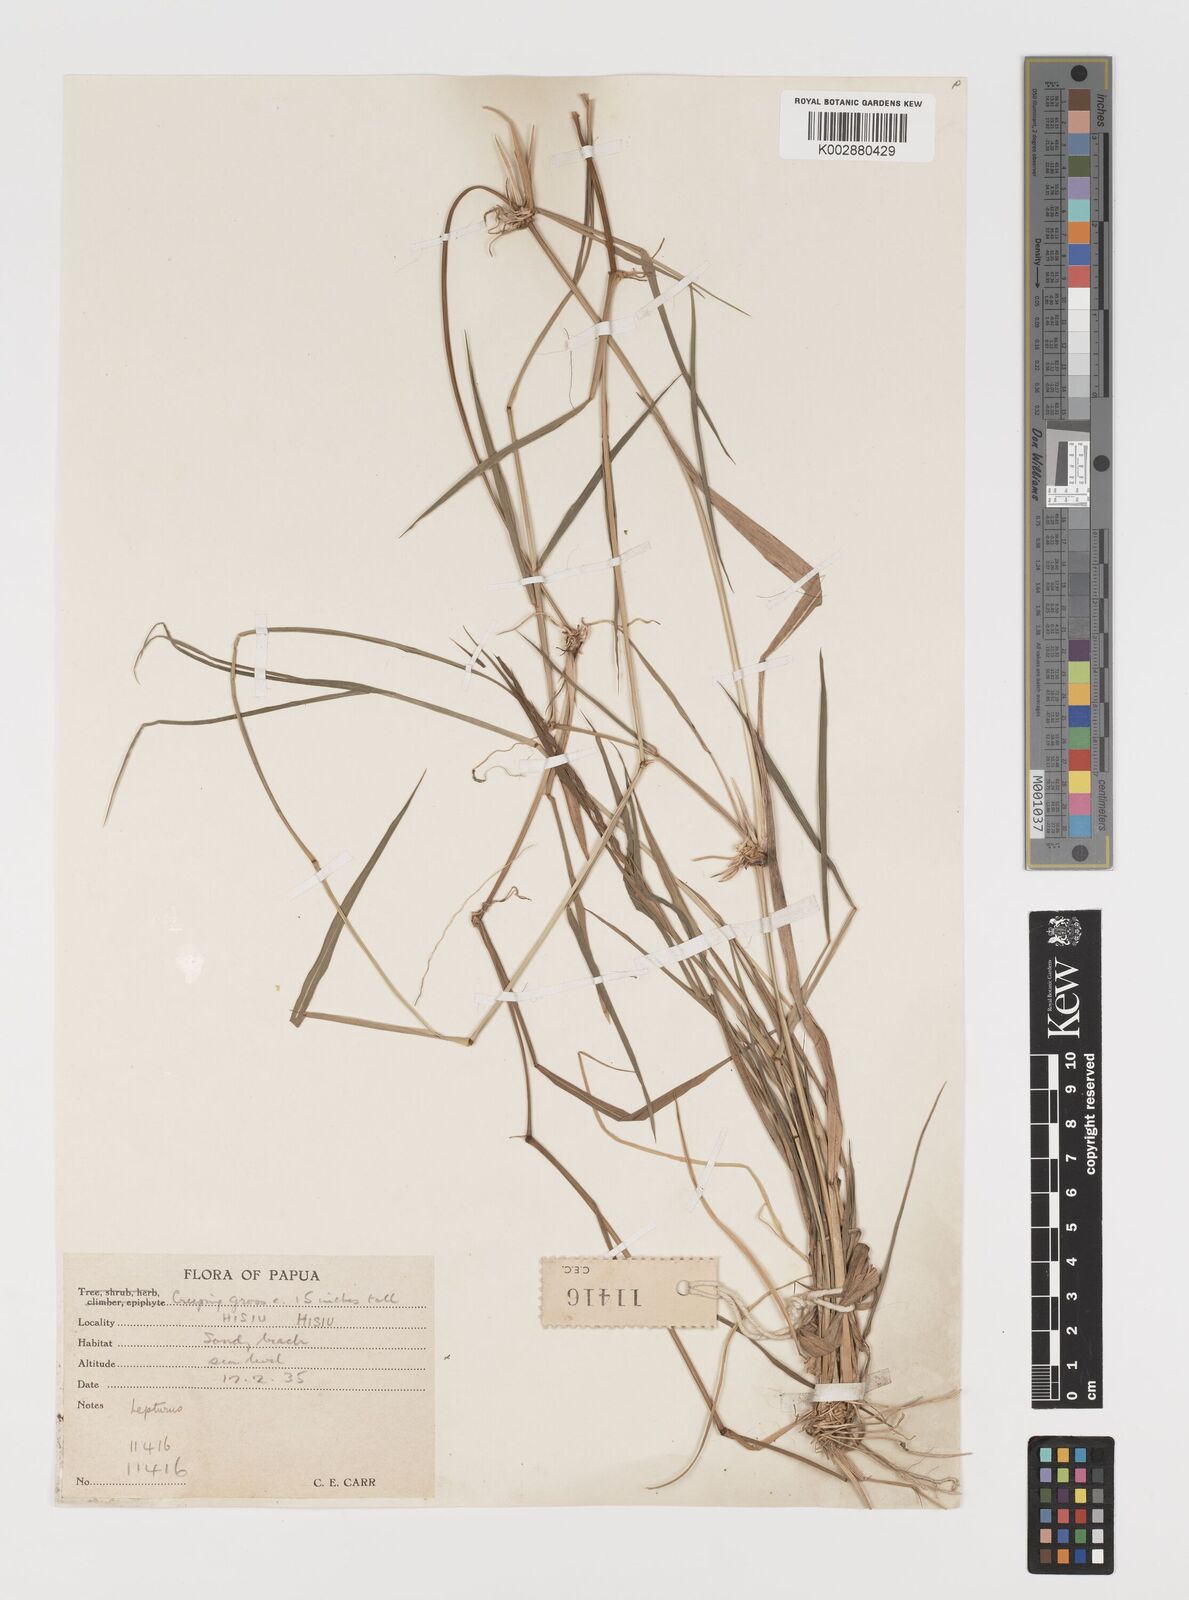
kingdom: Plantae
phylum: Tracheophyta
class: Liliopsida
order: Poales
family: Poaceae
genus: Lepturus
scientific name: Lepturus repens
